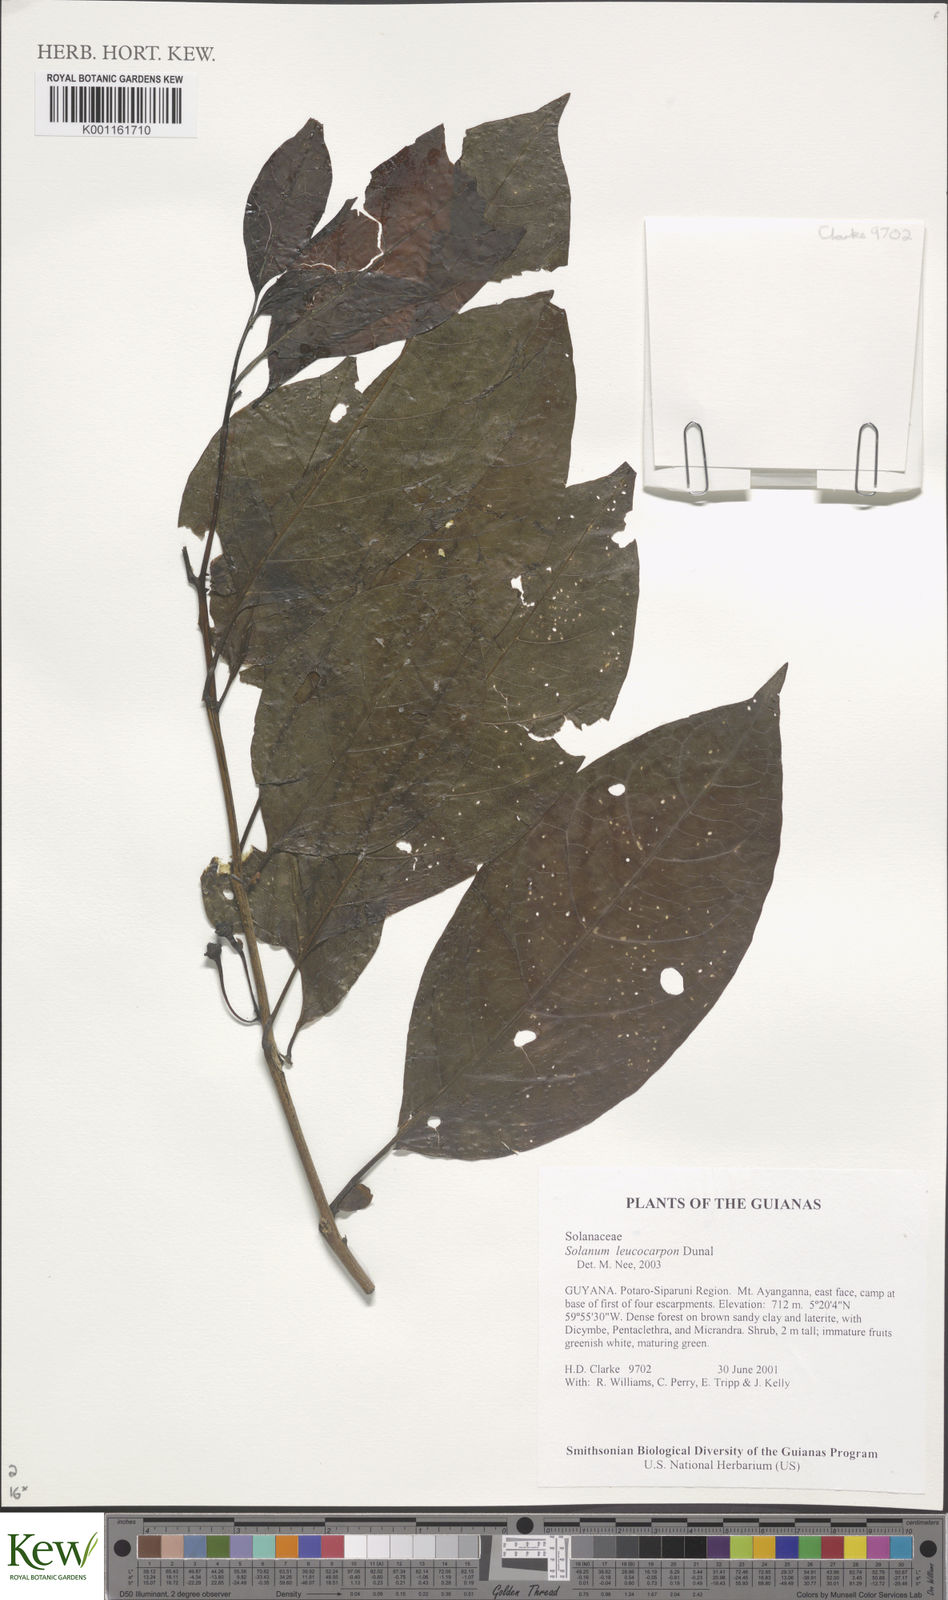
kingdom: Plantae
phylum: Tracheophyta
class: Magnoliopsida
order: Solanales
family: Solanaceae
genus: Solanum
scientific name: Solanum leucocarpon
